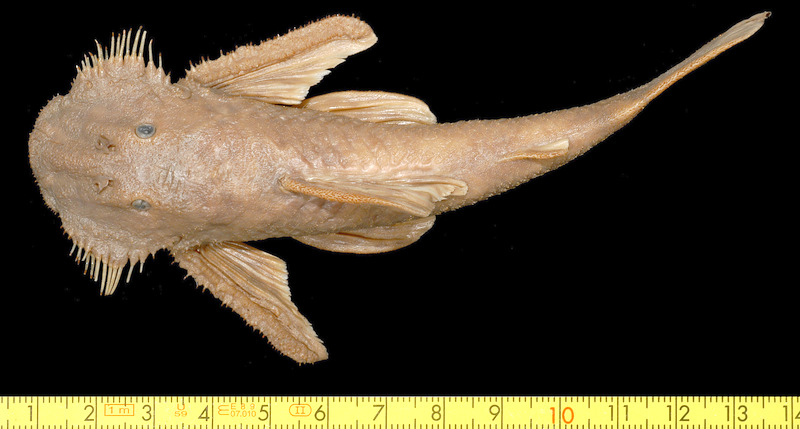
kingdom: Animalia
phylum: Chordata
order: Siluriformes
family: Loricariidae
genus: Pareiorhaphis
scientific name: Pareiorhaphis cameroni
